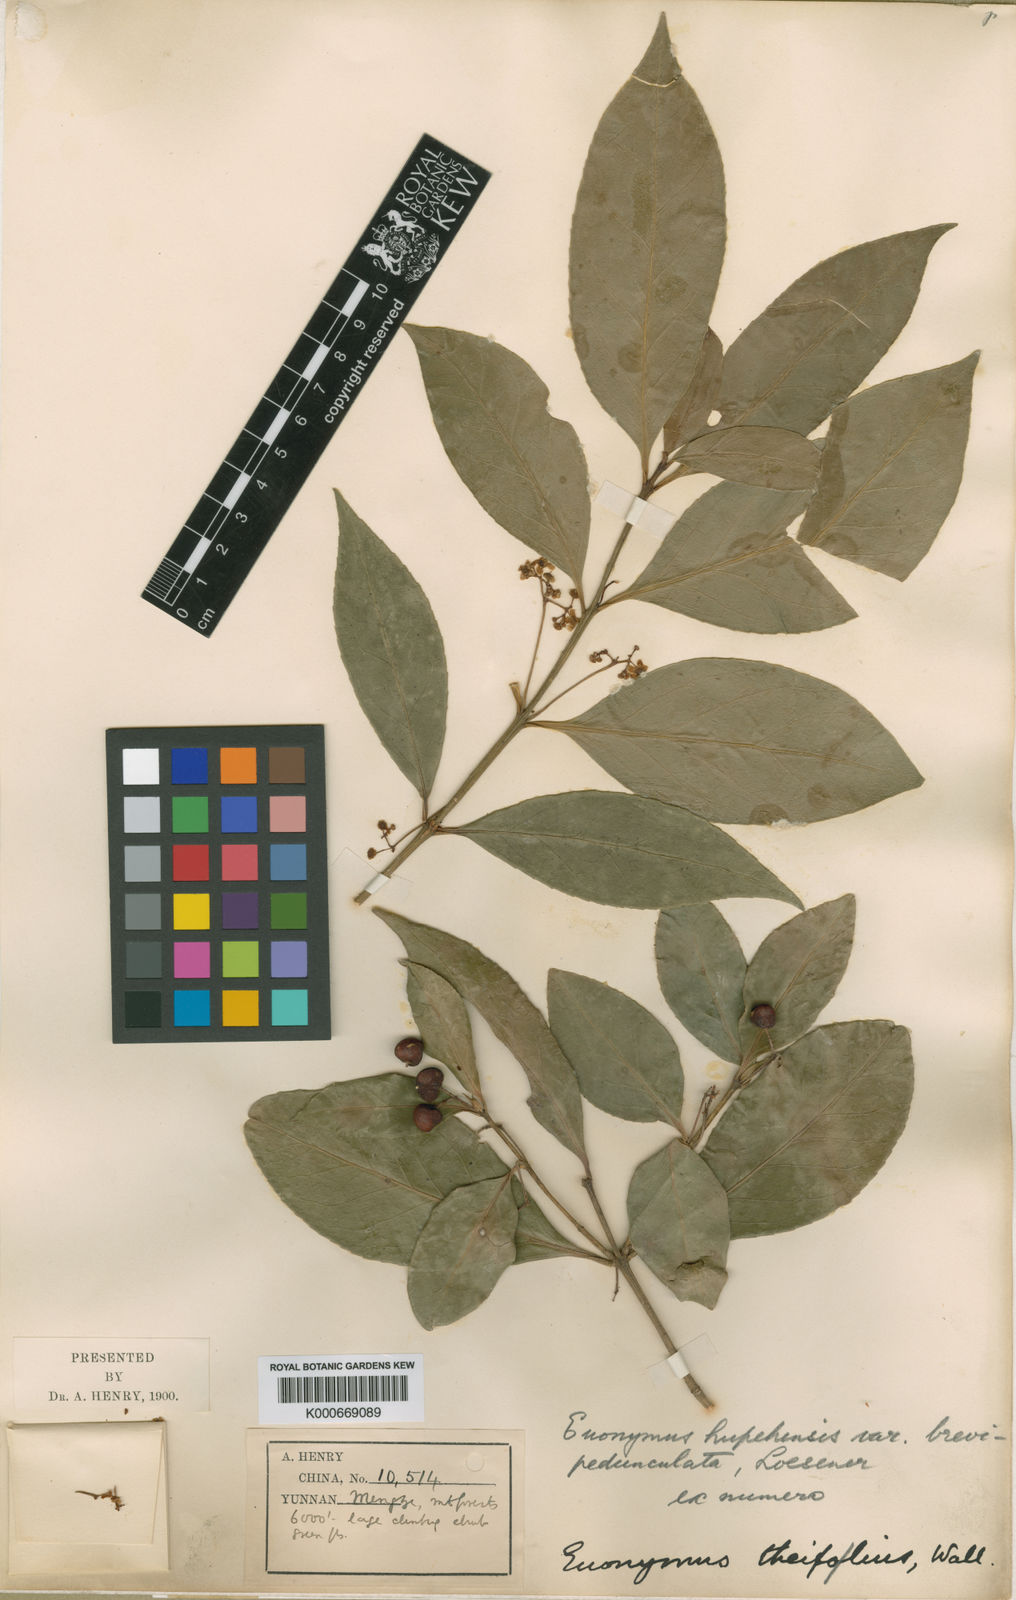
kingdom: Plantae
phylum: Tracheophyta
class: Magnoliopsida
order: Celastrales
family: Celastraceae
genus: Euonymus
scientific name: Euonymus vagans
